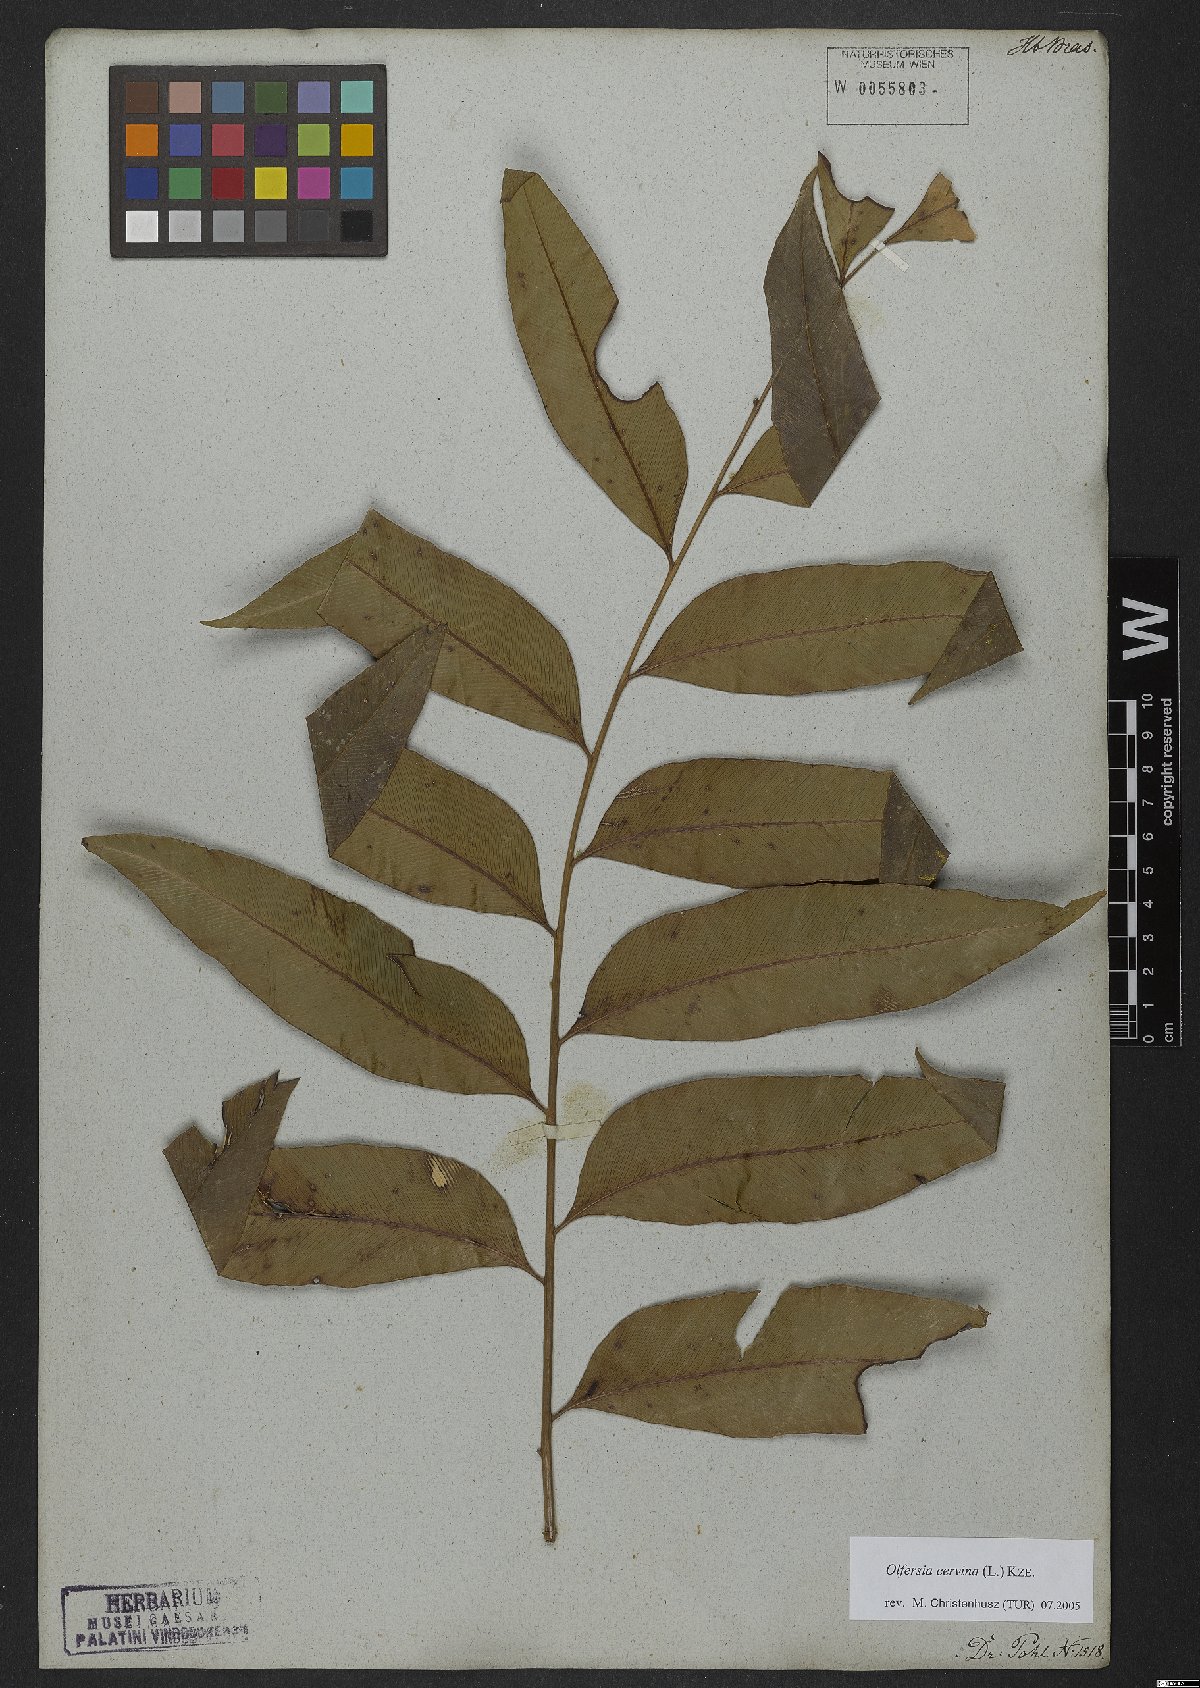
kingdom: Plantae
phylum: Tracheophyta
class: Polypodiopsida
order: Polypodiales
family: Dryopteridaceae
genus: Olfersia
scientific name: Olfersia cervina
